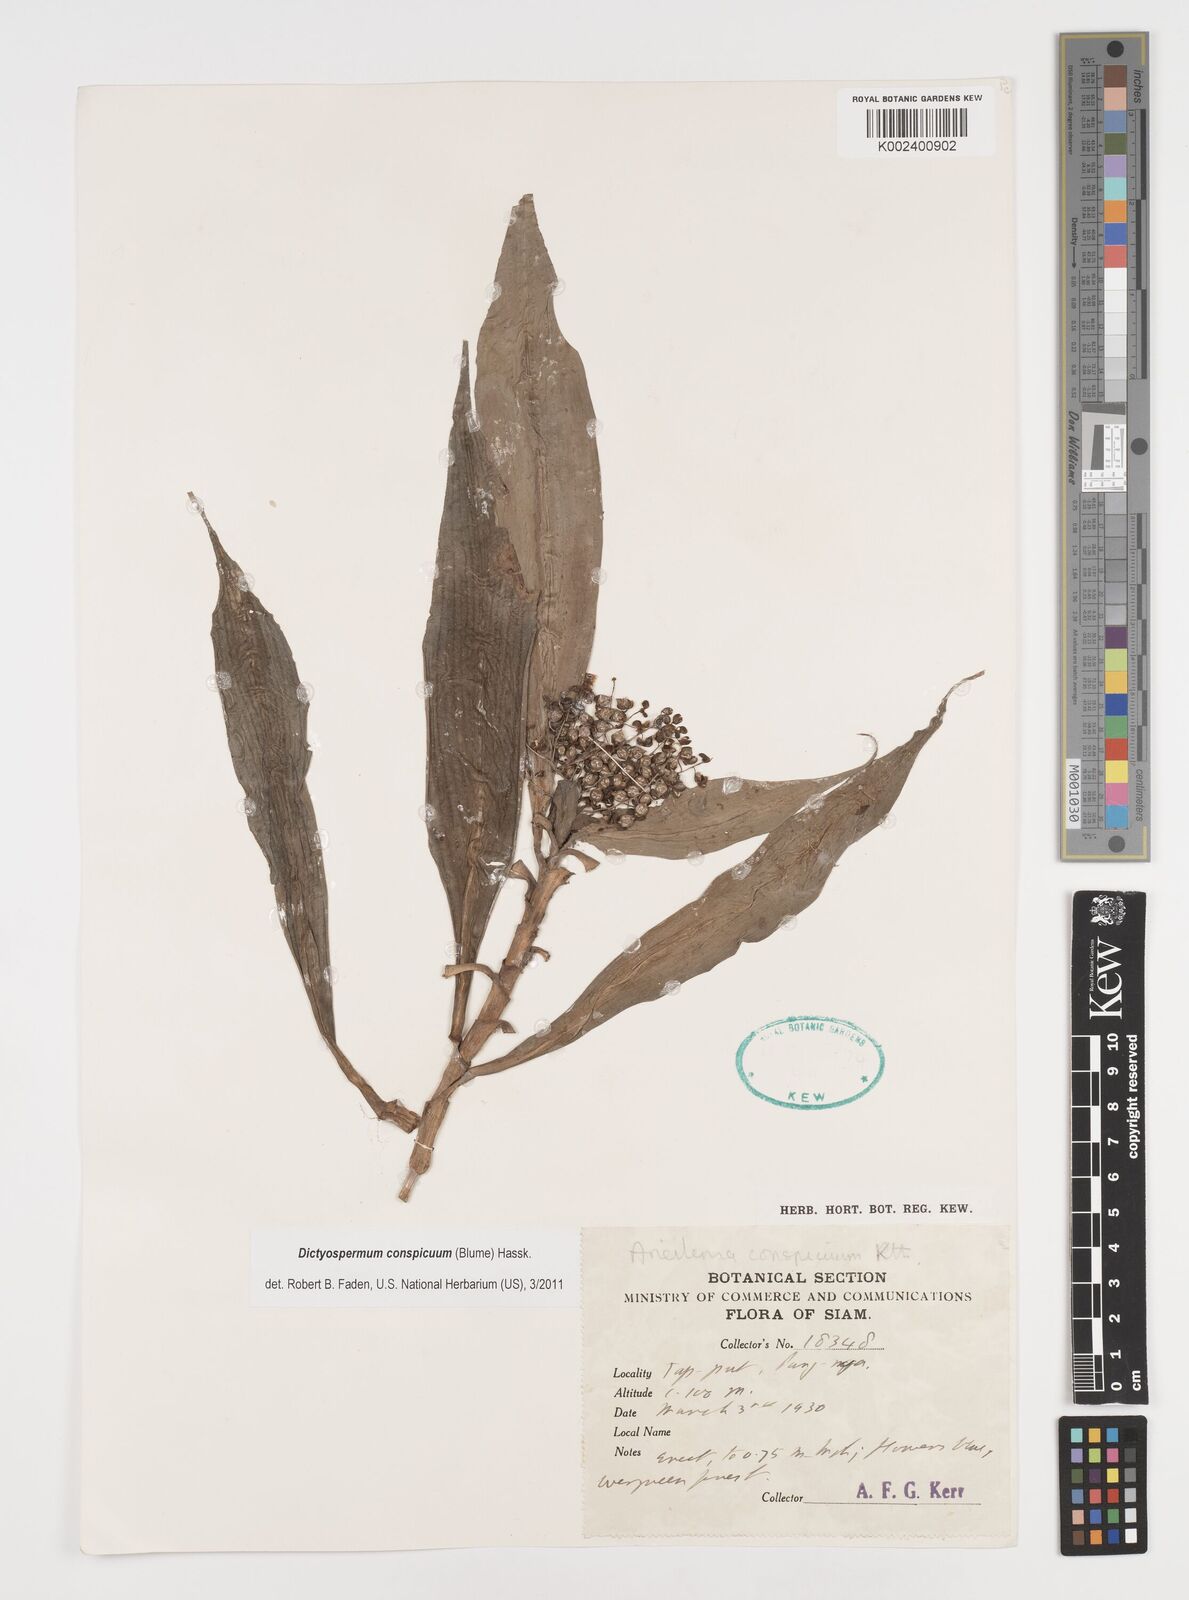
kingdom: Plantae
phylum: Tracheophyta
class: Liliopsida
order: Commelinales
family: Commelinaceae
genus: Dictyospermum
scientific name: Dictyospermum conspicuum
